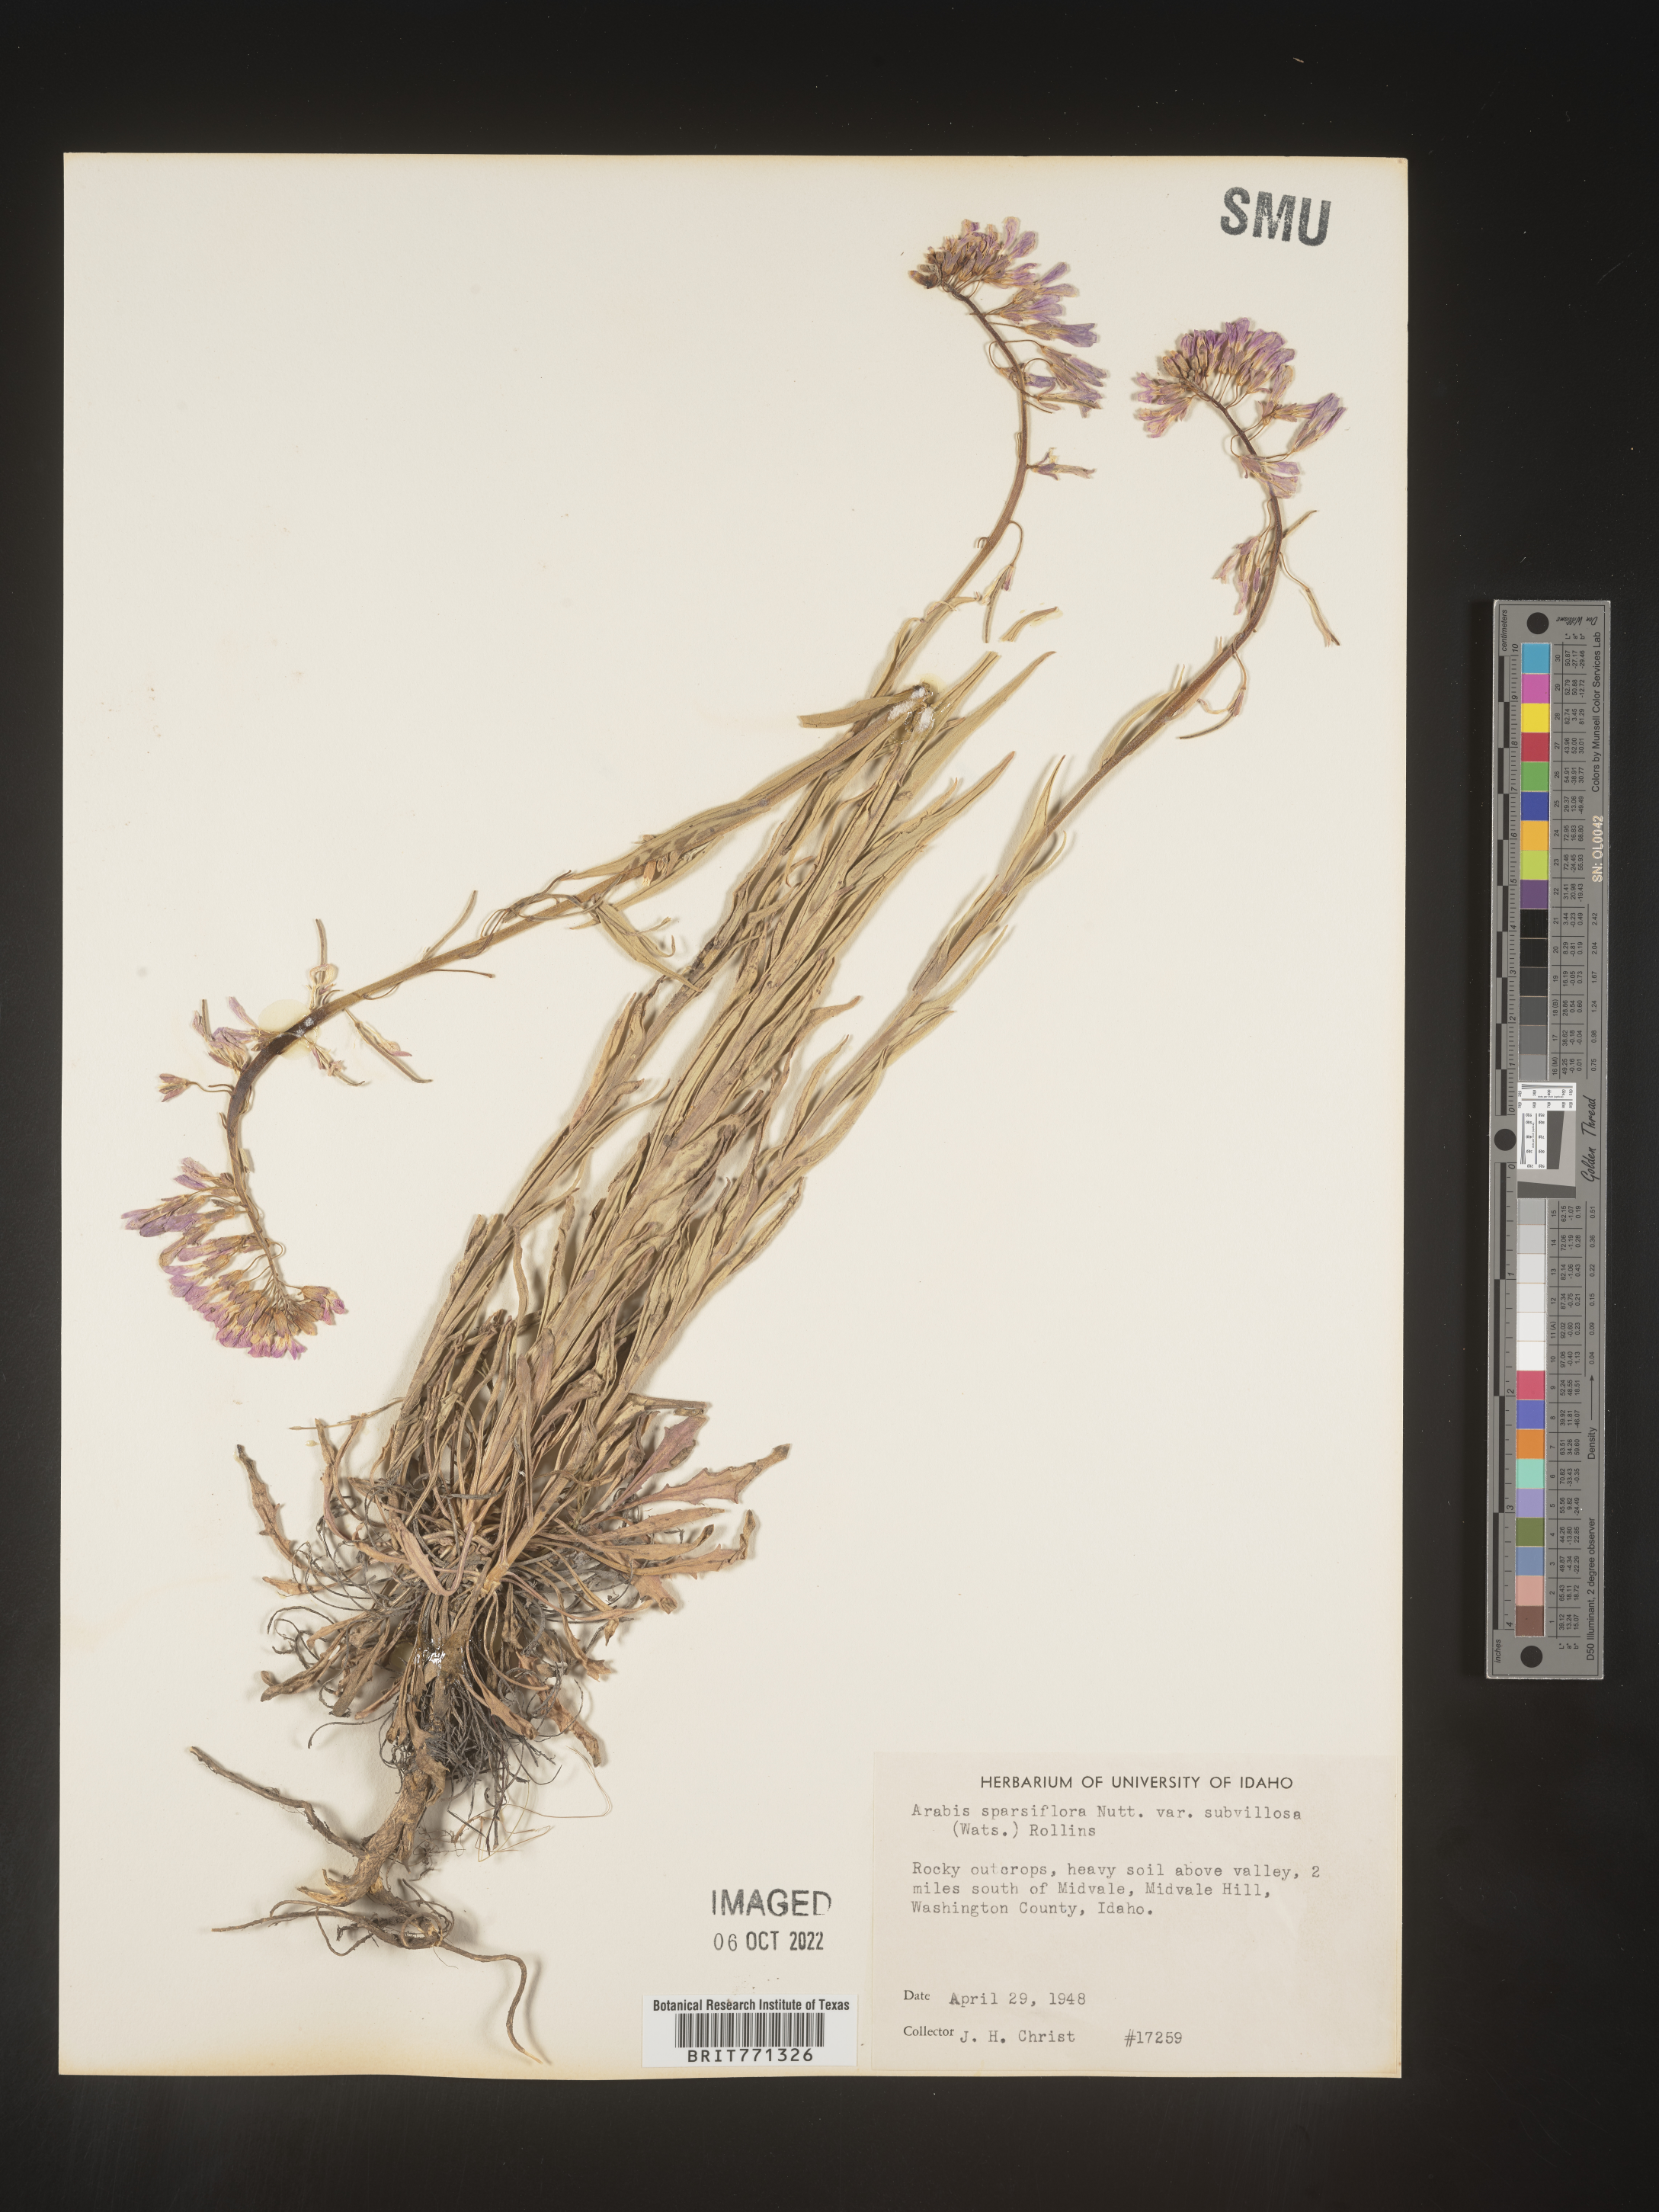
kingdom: Plantae
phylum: Tracheophyta
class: Magnoliopsida
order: Brassicales
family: Brassicaceae
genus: Arabis
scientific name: Arabis
